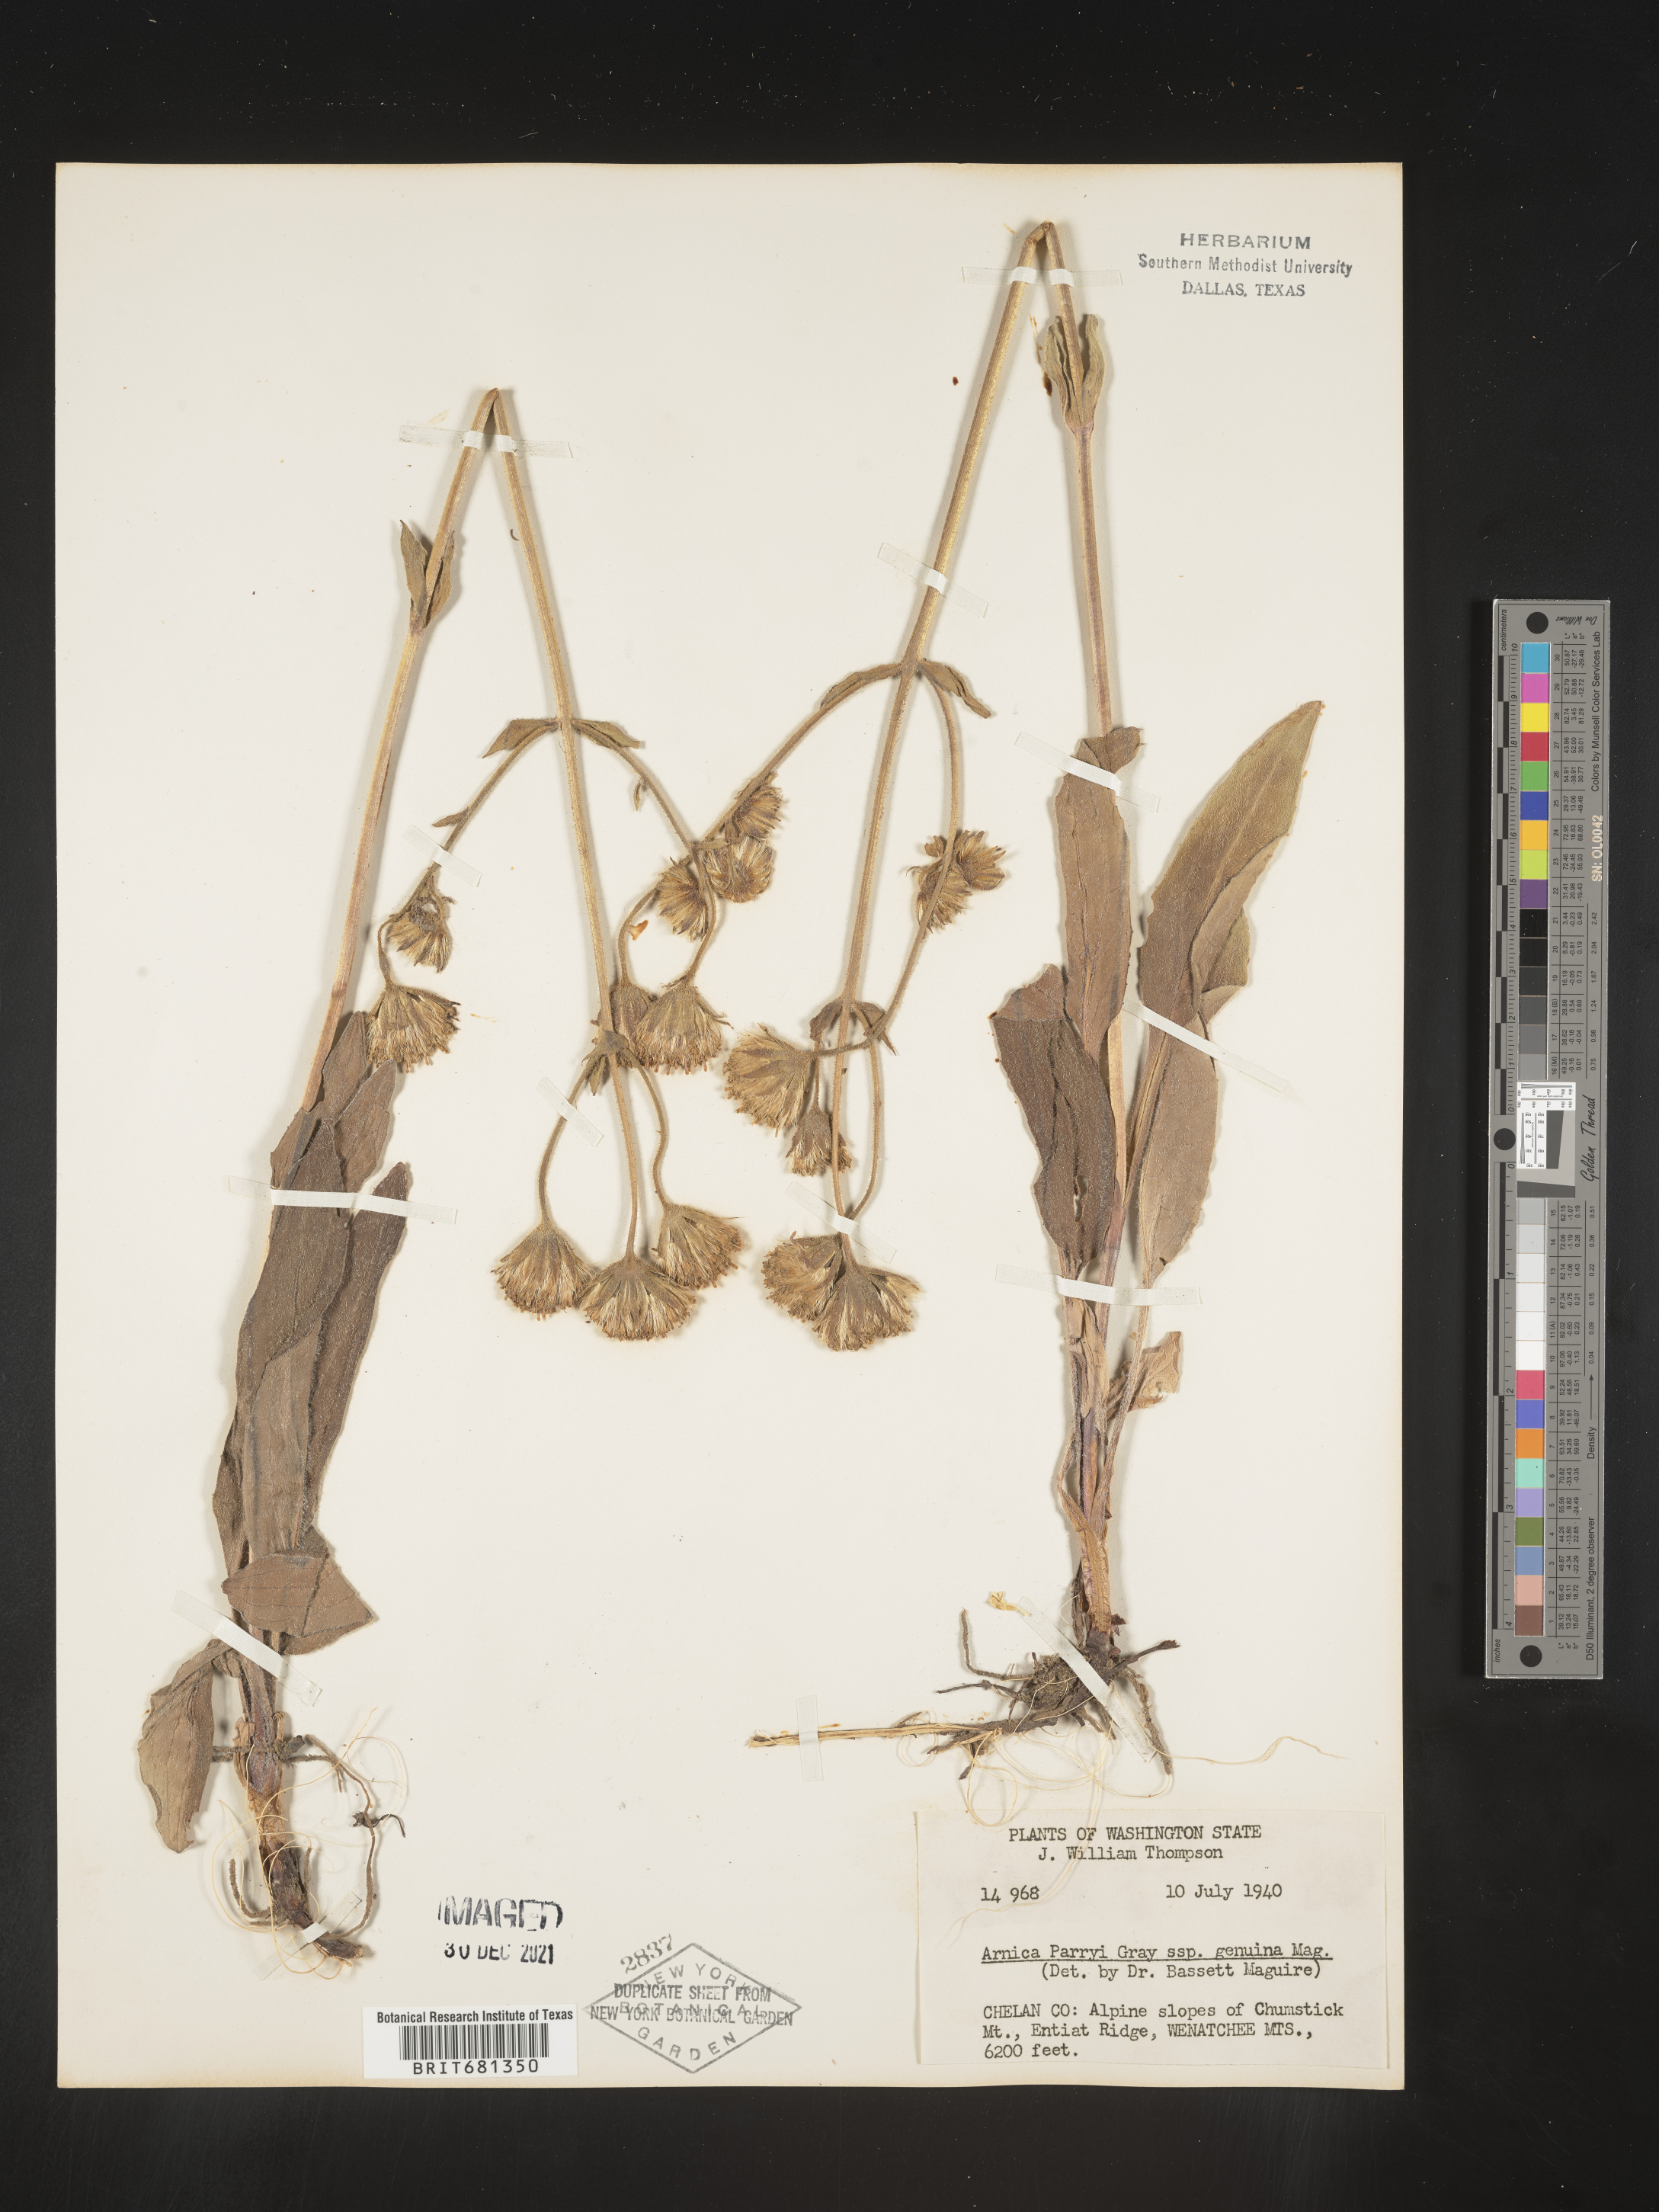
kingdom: Plantae
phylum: Tracheophyta
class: Magnoliopsida
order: Asterales
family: Asteraceae
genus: Arnica
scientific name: Arnica parryi
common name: Parry's arnica
